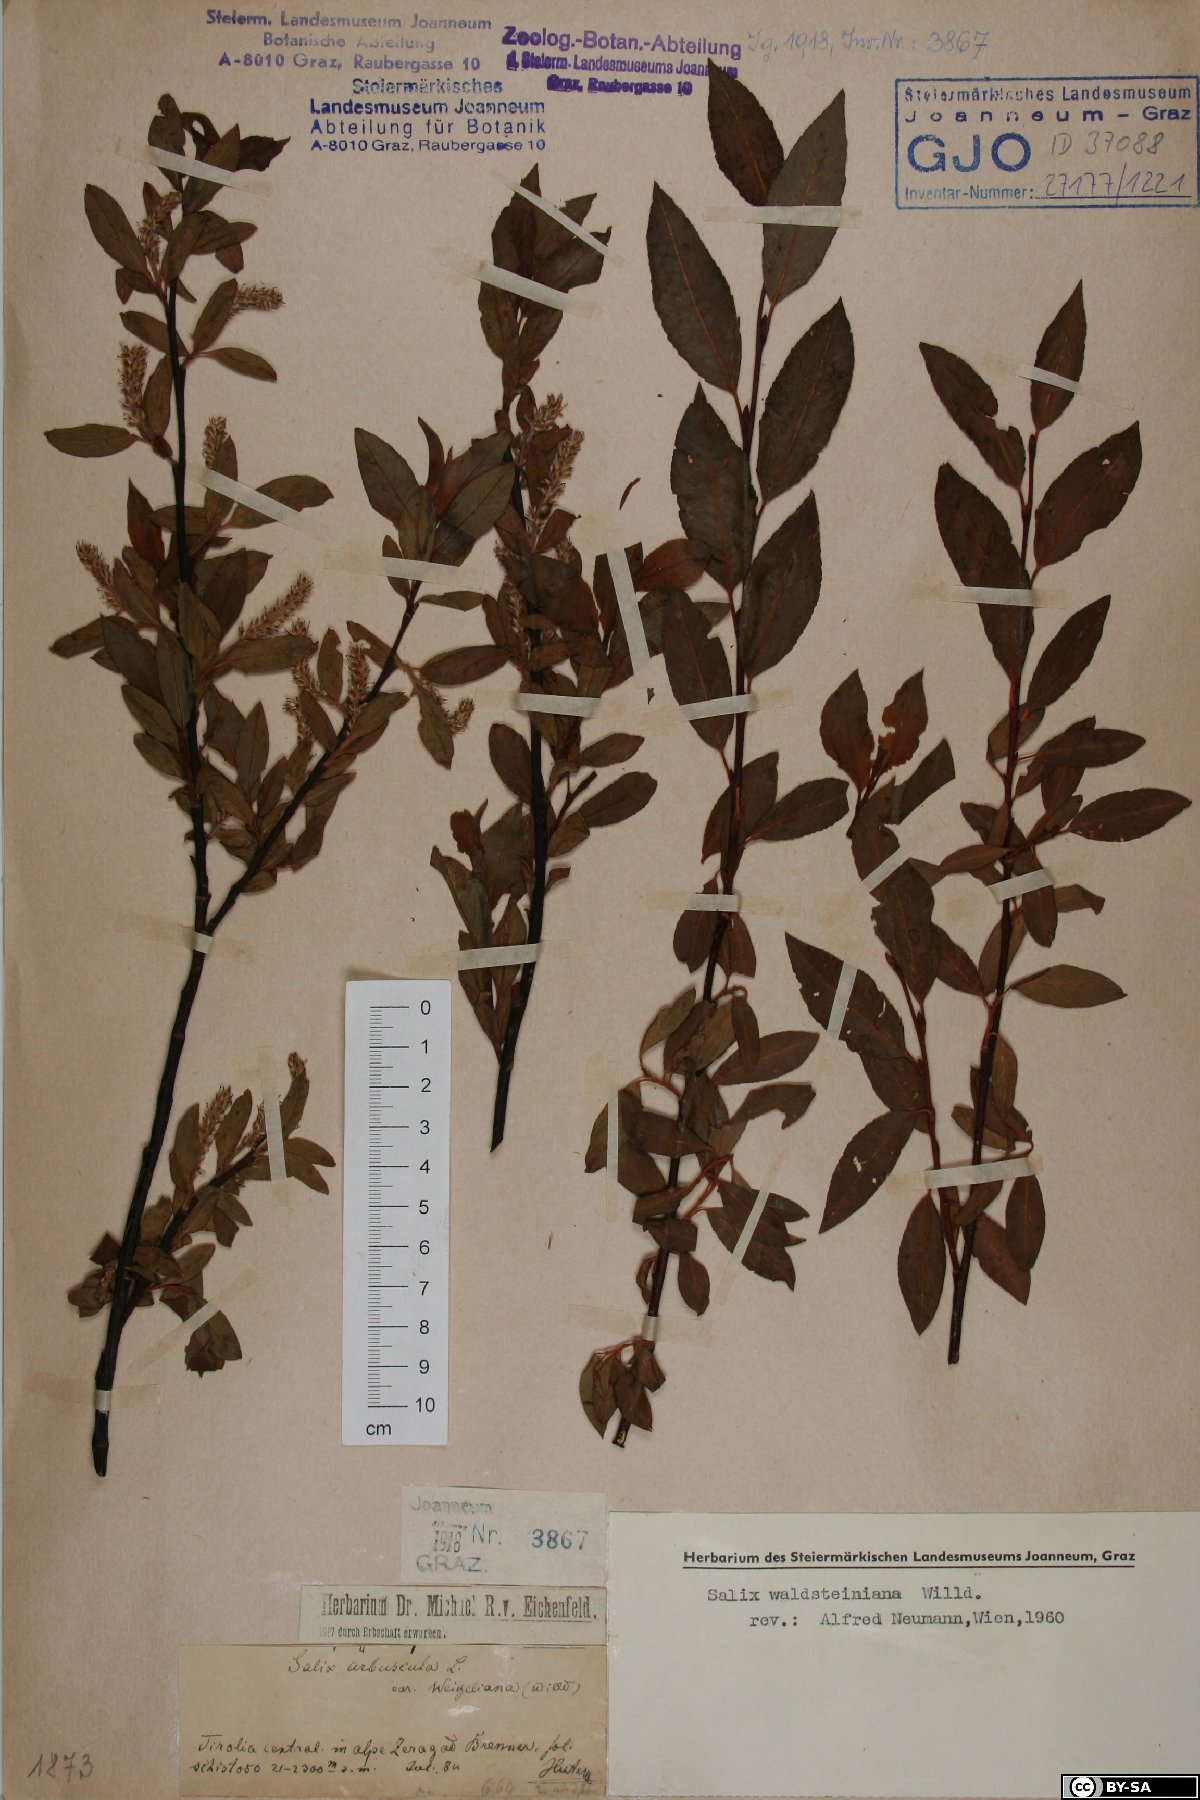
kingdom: Plantae
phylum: Tracheophyta
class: Magnoliopsida
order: Malpighiales
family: Salicaceae
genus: Salix
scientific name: Salix waldsteiniana
